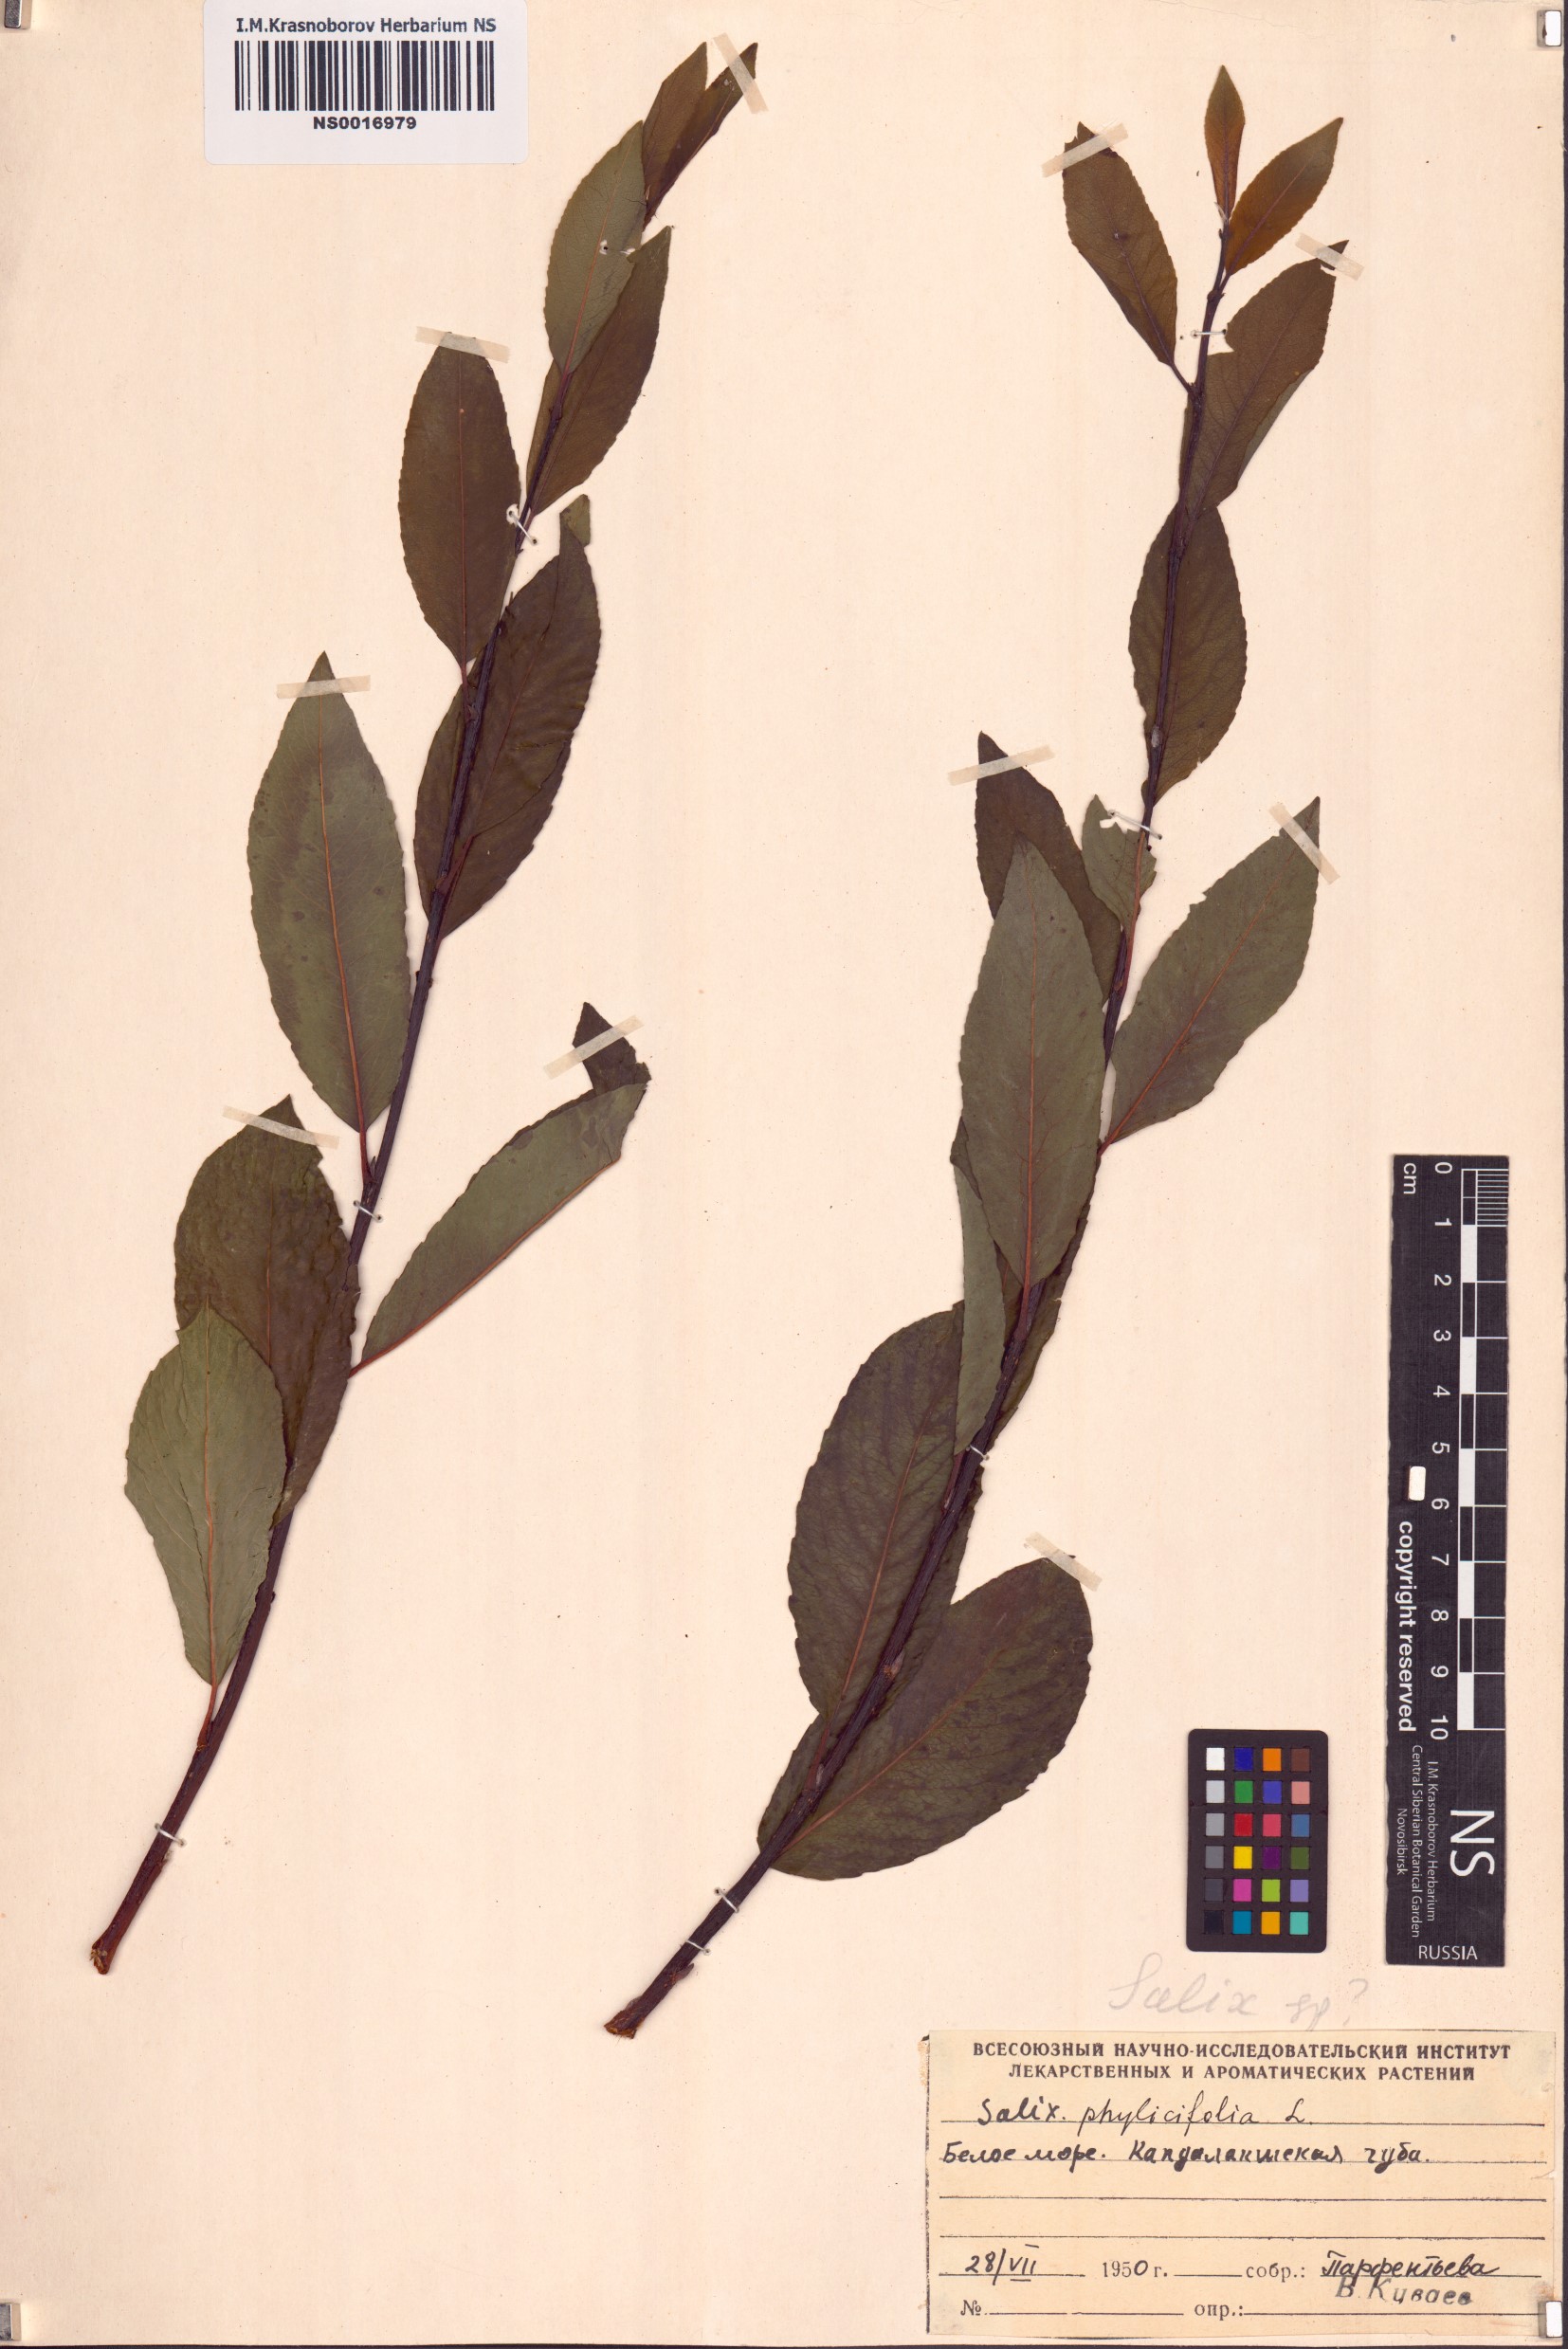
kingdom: Plantae
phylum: Tracheophyta
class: Magnoliopsida
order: Malpighiales
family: Salicaceae
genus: Salix
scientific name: Salix phylicifolia
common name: Tea-leaved willow
